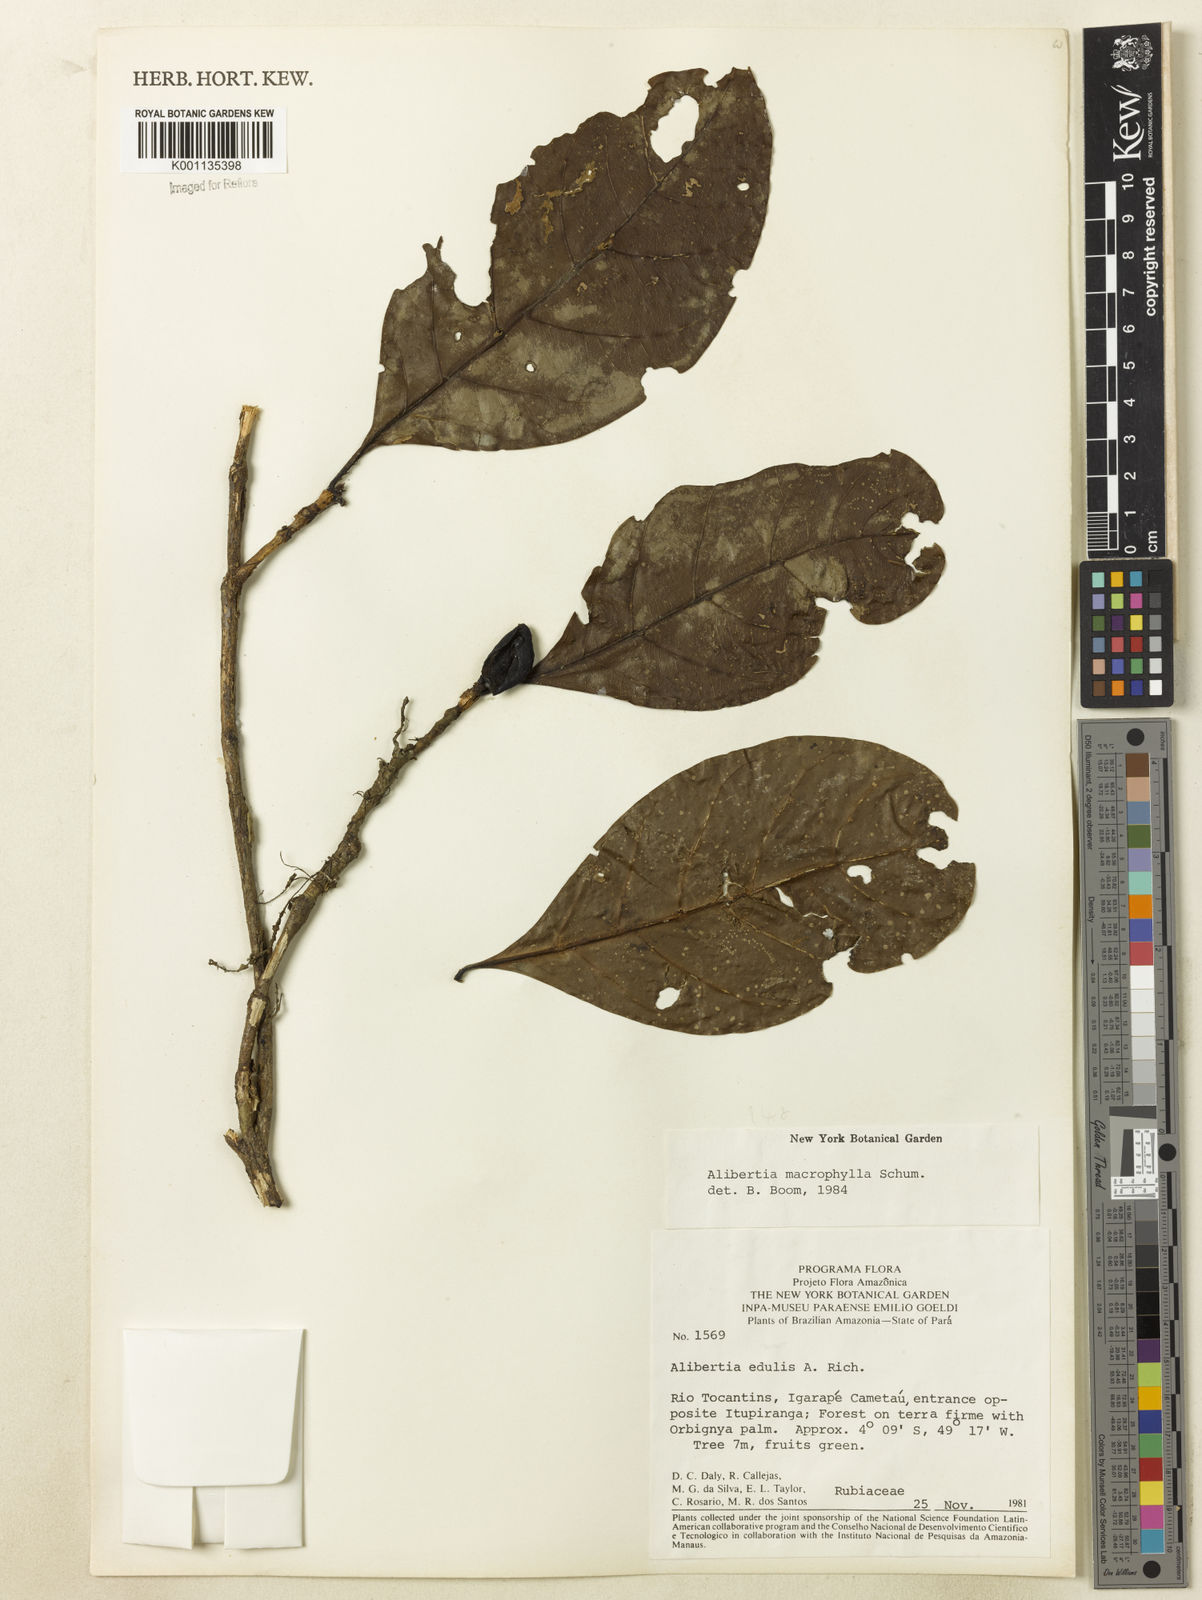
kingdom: Plantae
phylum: Tracheophyta
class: Magnoliopsida
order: Gentianales
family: Rubiaceae
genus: Cordiera
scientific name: Cordiera macrophylla
